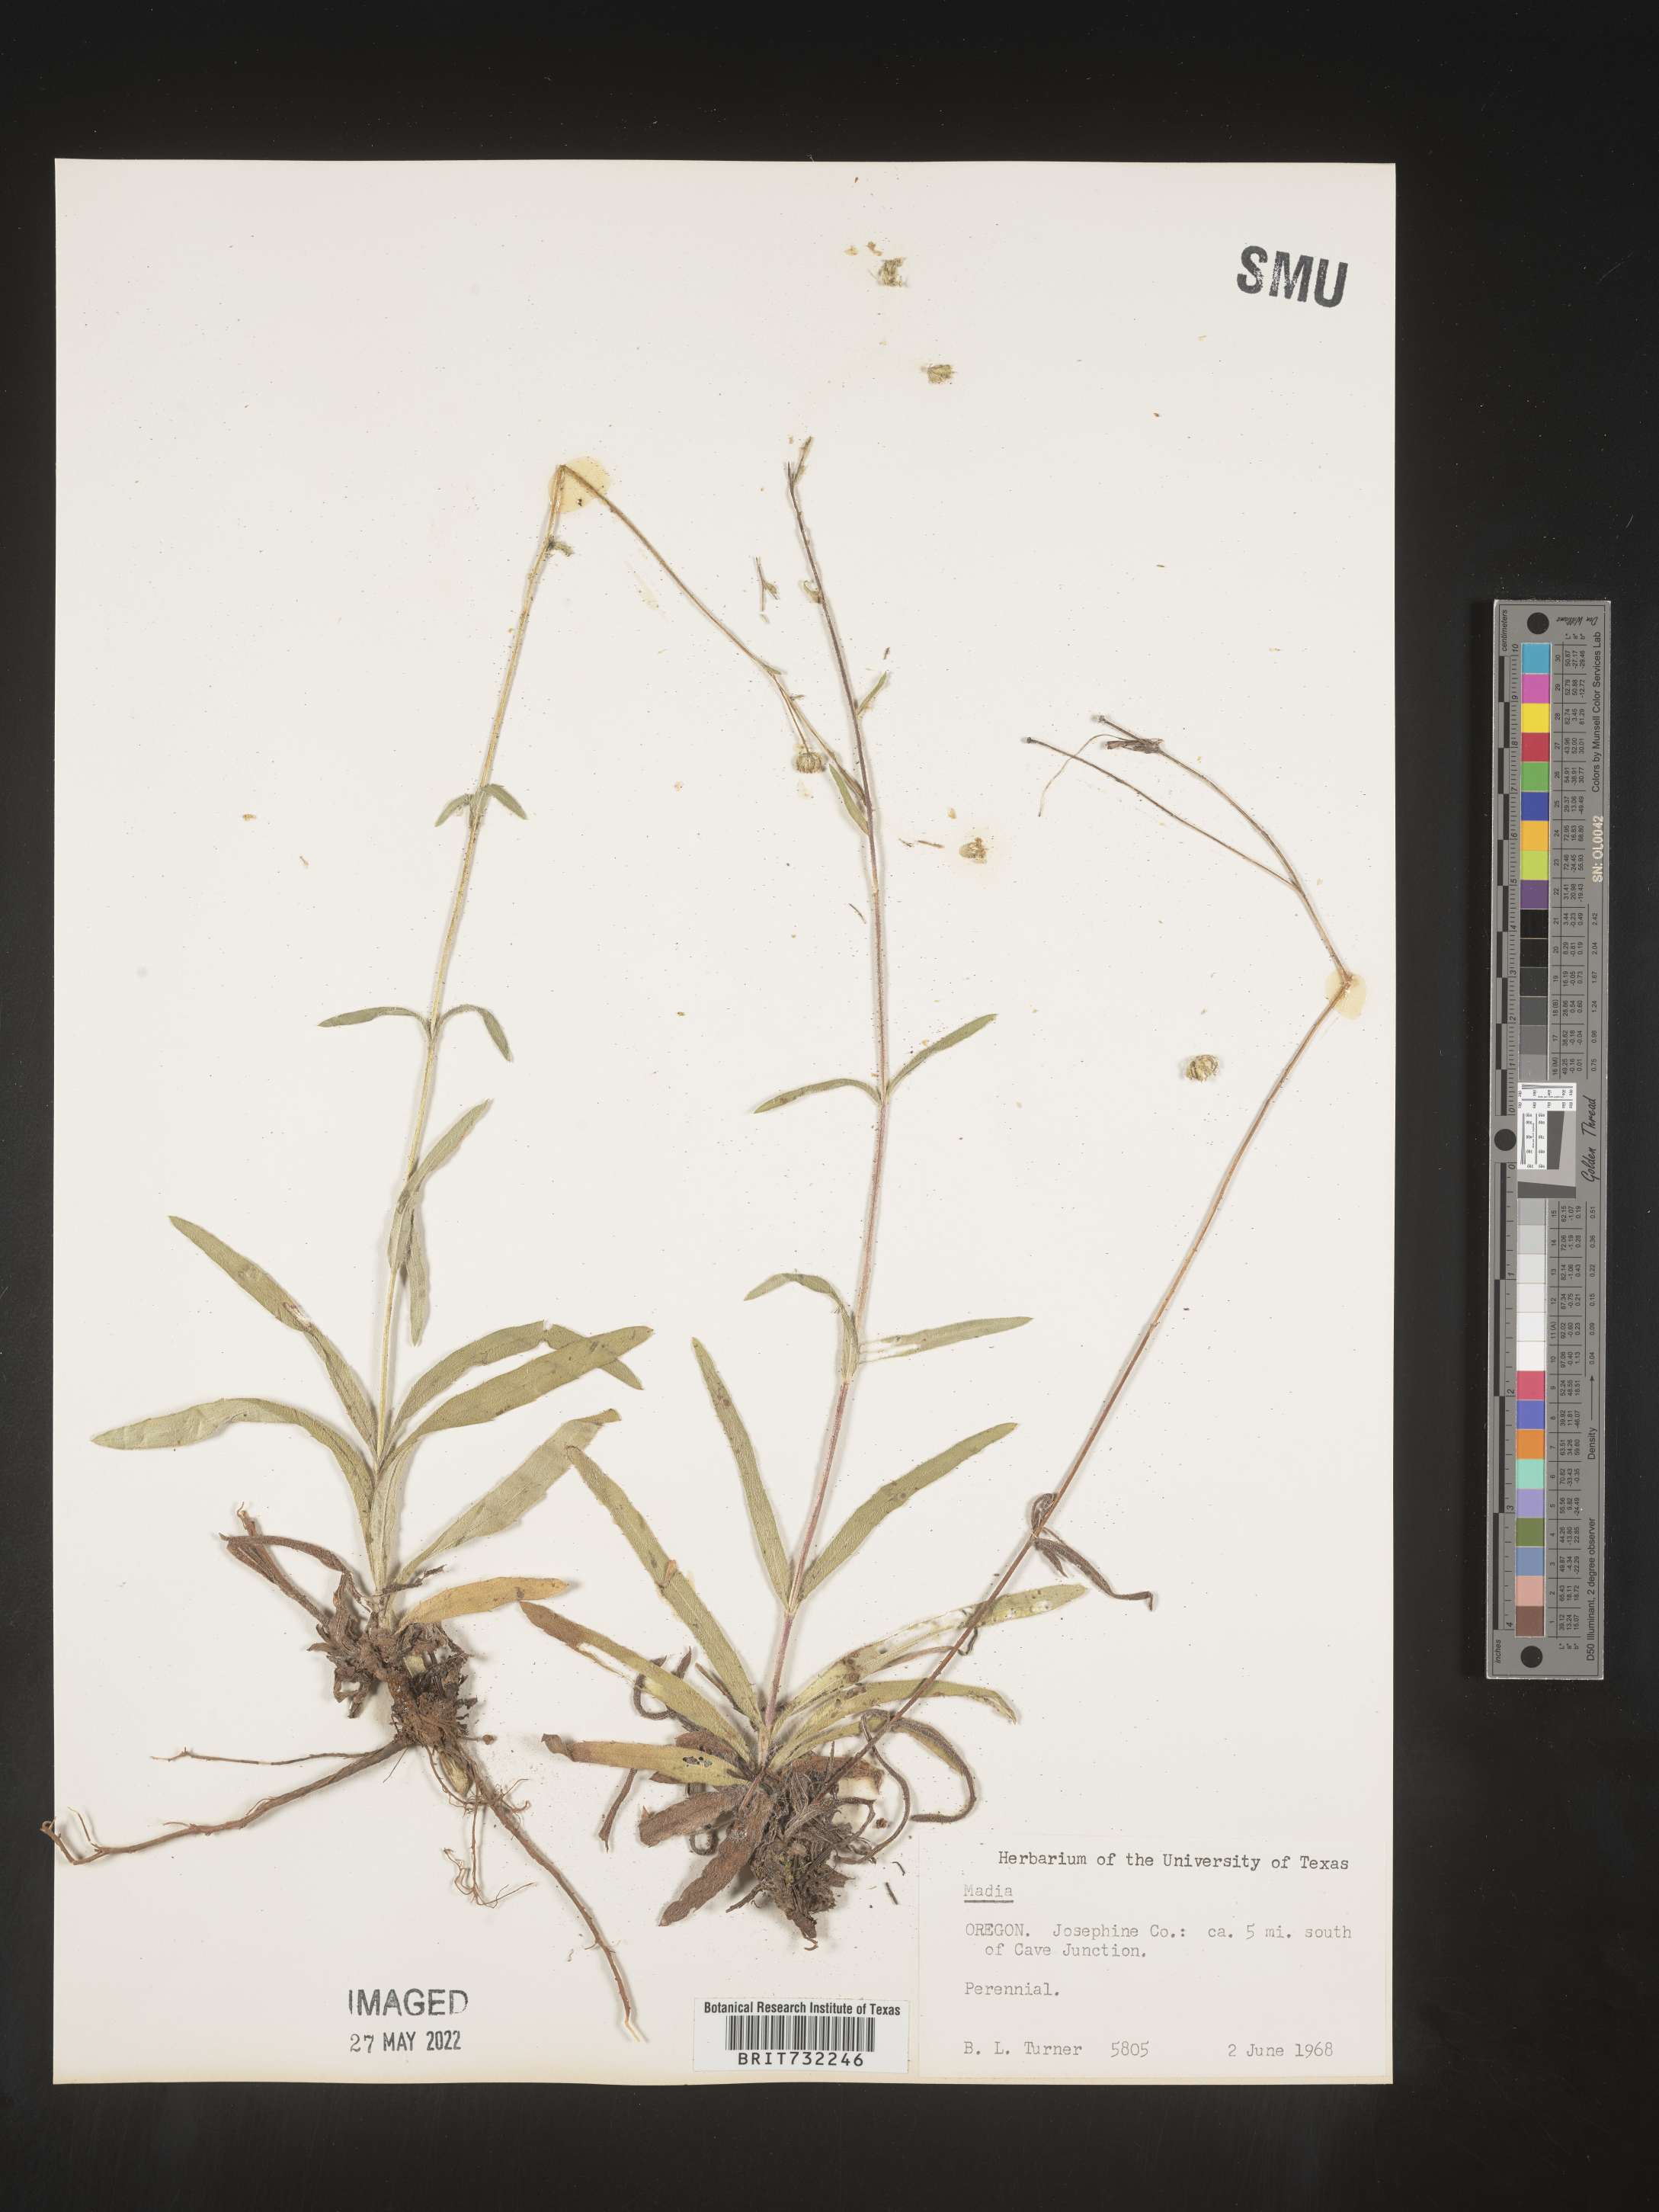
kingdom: Plantae
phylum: Tracheophyta
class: Magnoliopsida
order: Asterales
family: Asteraceae
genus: Madia
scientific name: Madia
